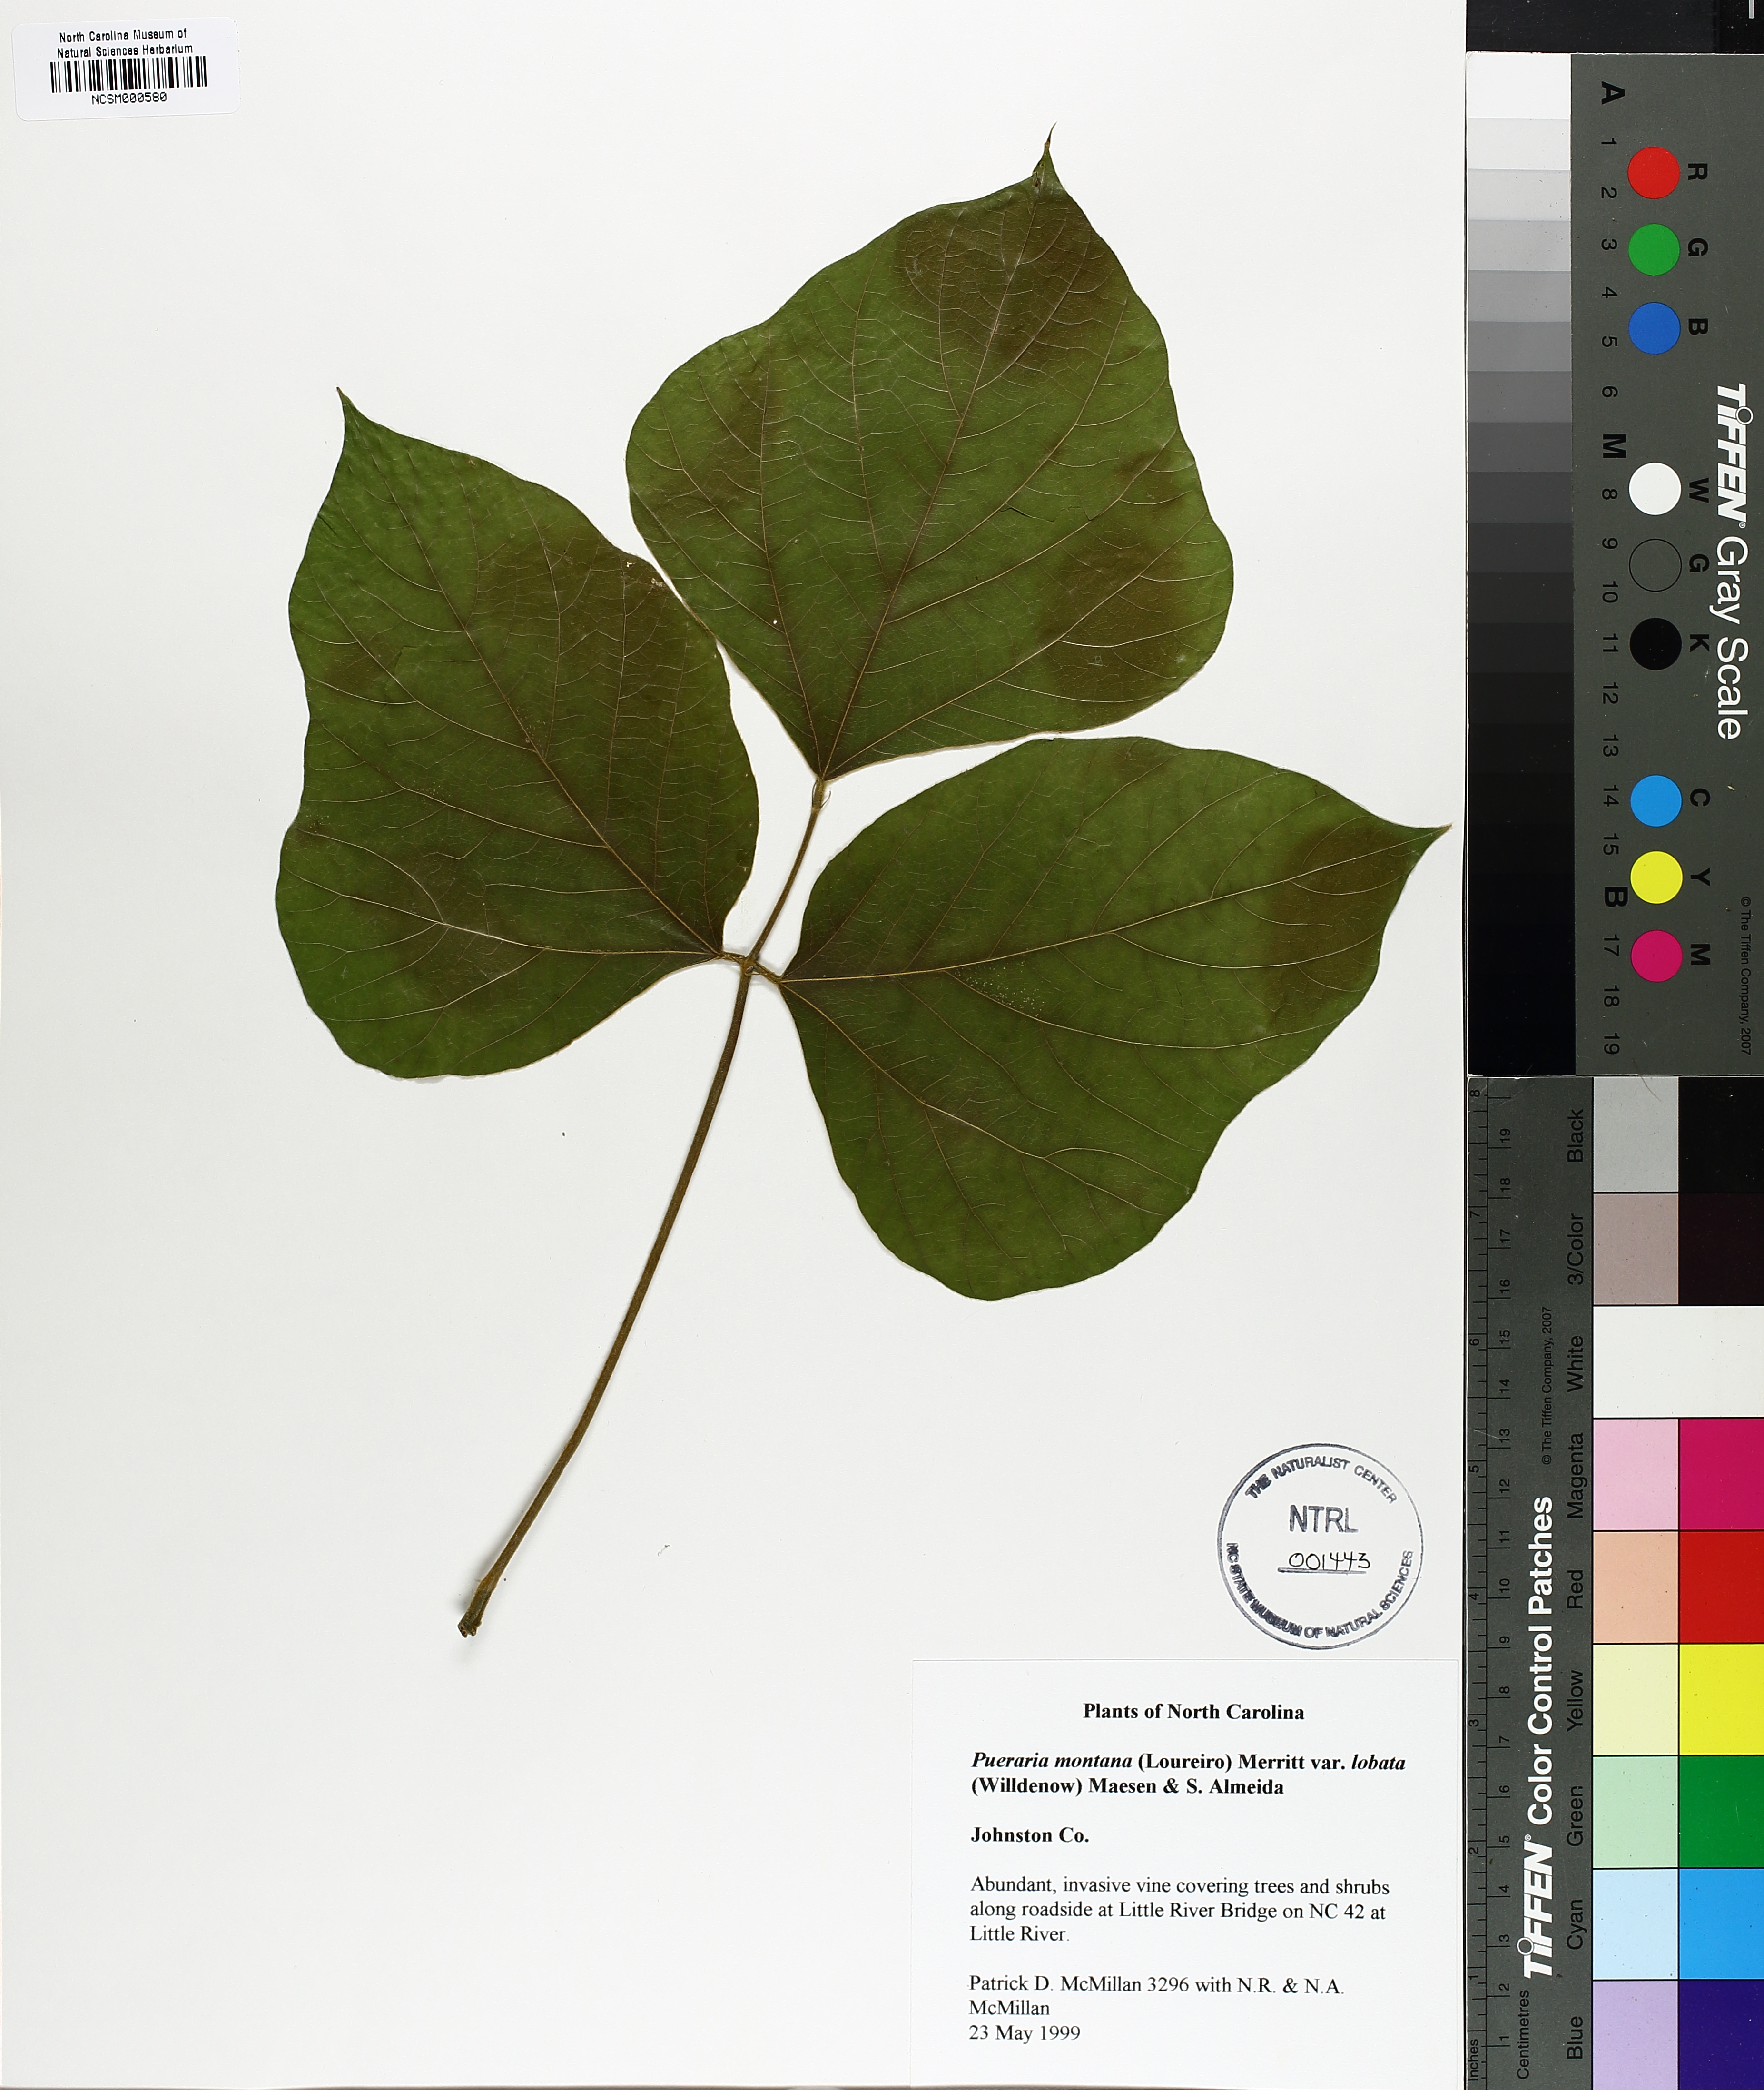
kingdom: Plantae
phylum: Tracheophyta
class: Magnoliopsida
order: Fabales
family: Fabaceae
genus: Pueraria
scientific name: Pueraria montana
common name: Kudzu
